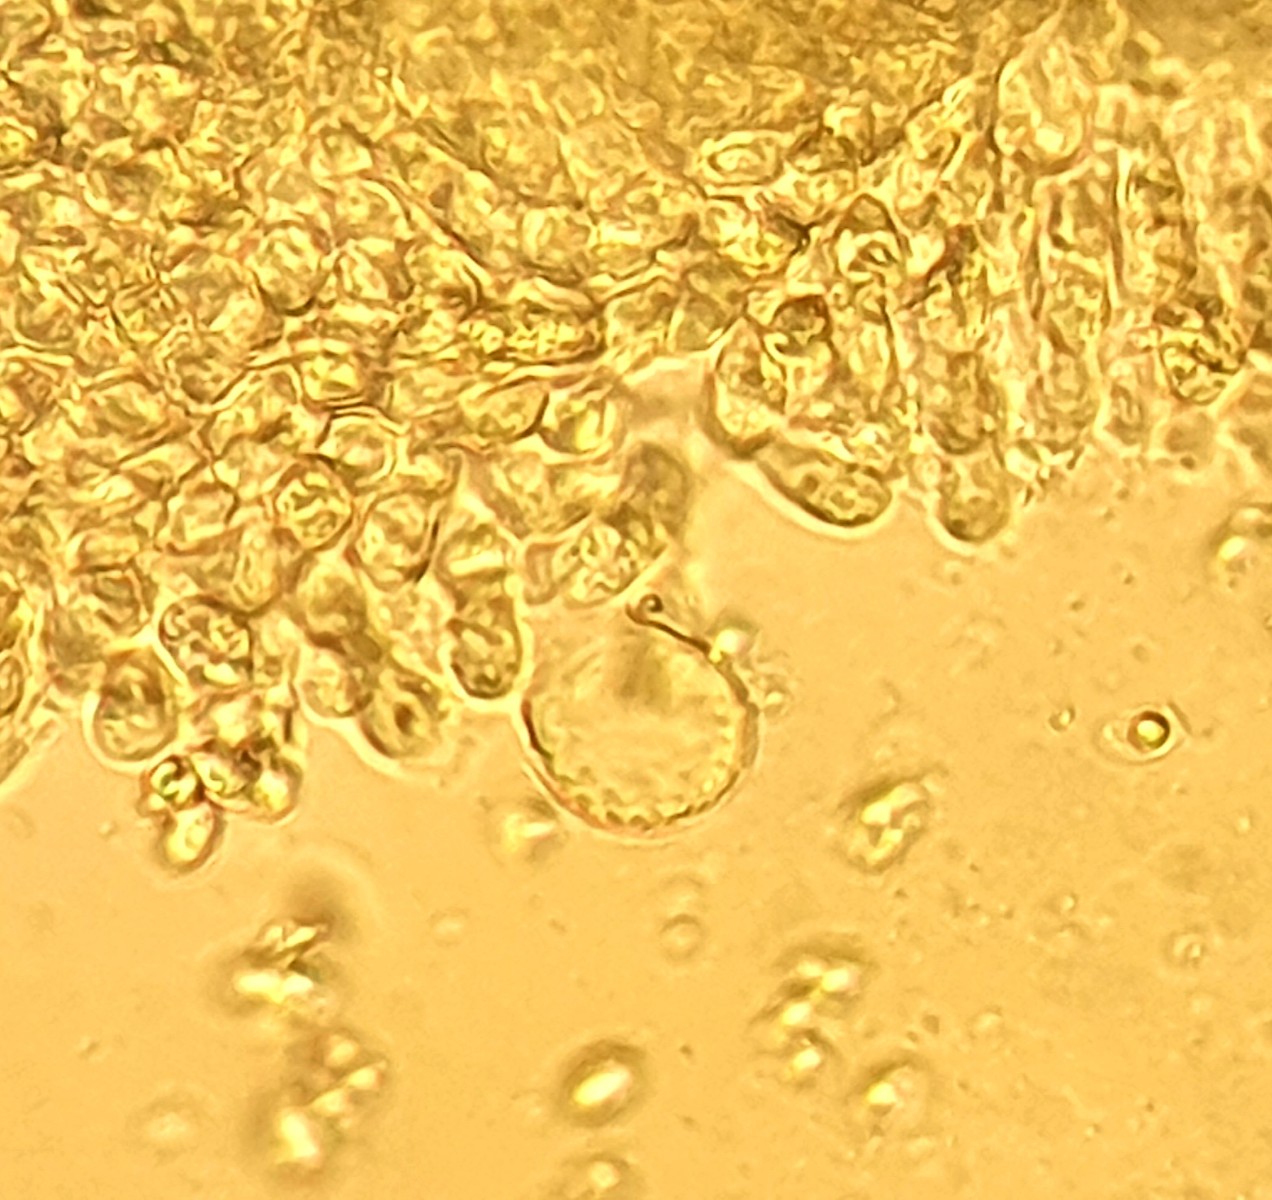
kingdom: Fungi
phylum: Basidiomycota
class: Agaricomycetes
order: Agaricales
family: Mycenaceae
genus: Mycena
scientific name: Mycena flavescens
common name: grågul huesvamp
